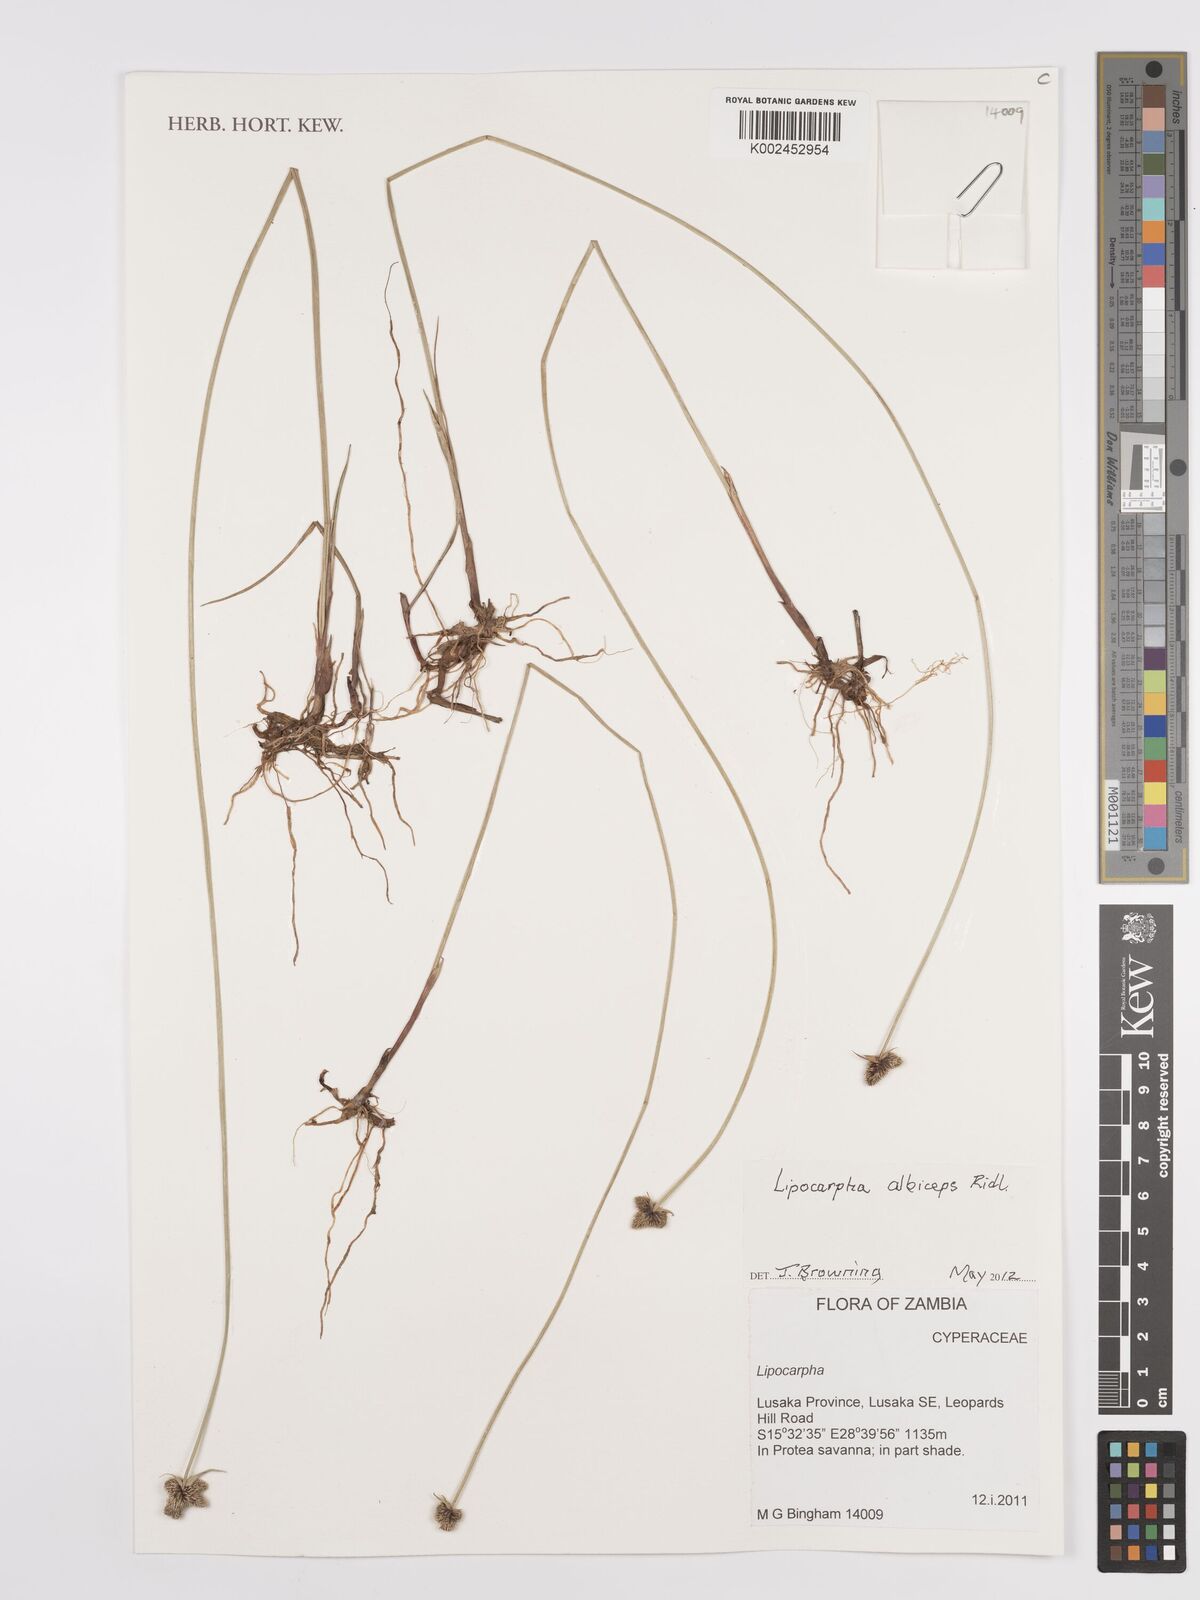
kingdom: Plantae
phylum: Tracheophyta
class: Liliopsida
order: Poales
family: Cyperaceae
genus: Cyperus
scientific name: Cyperus albiceps
